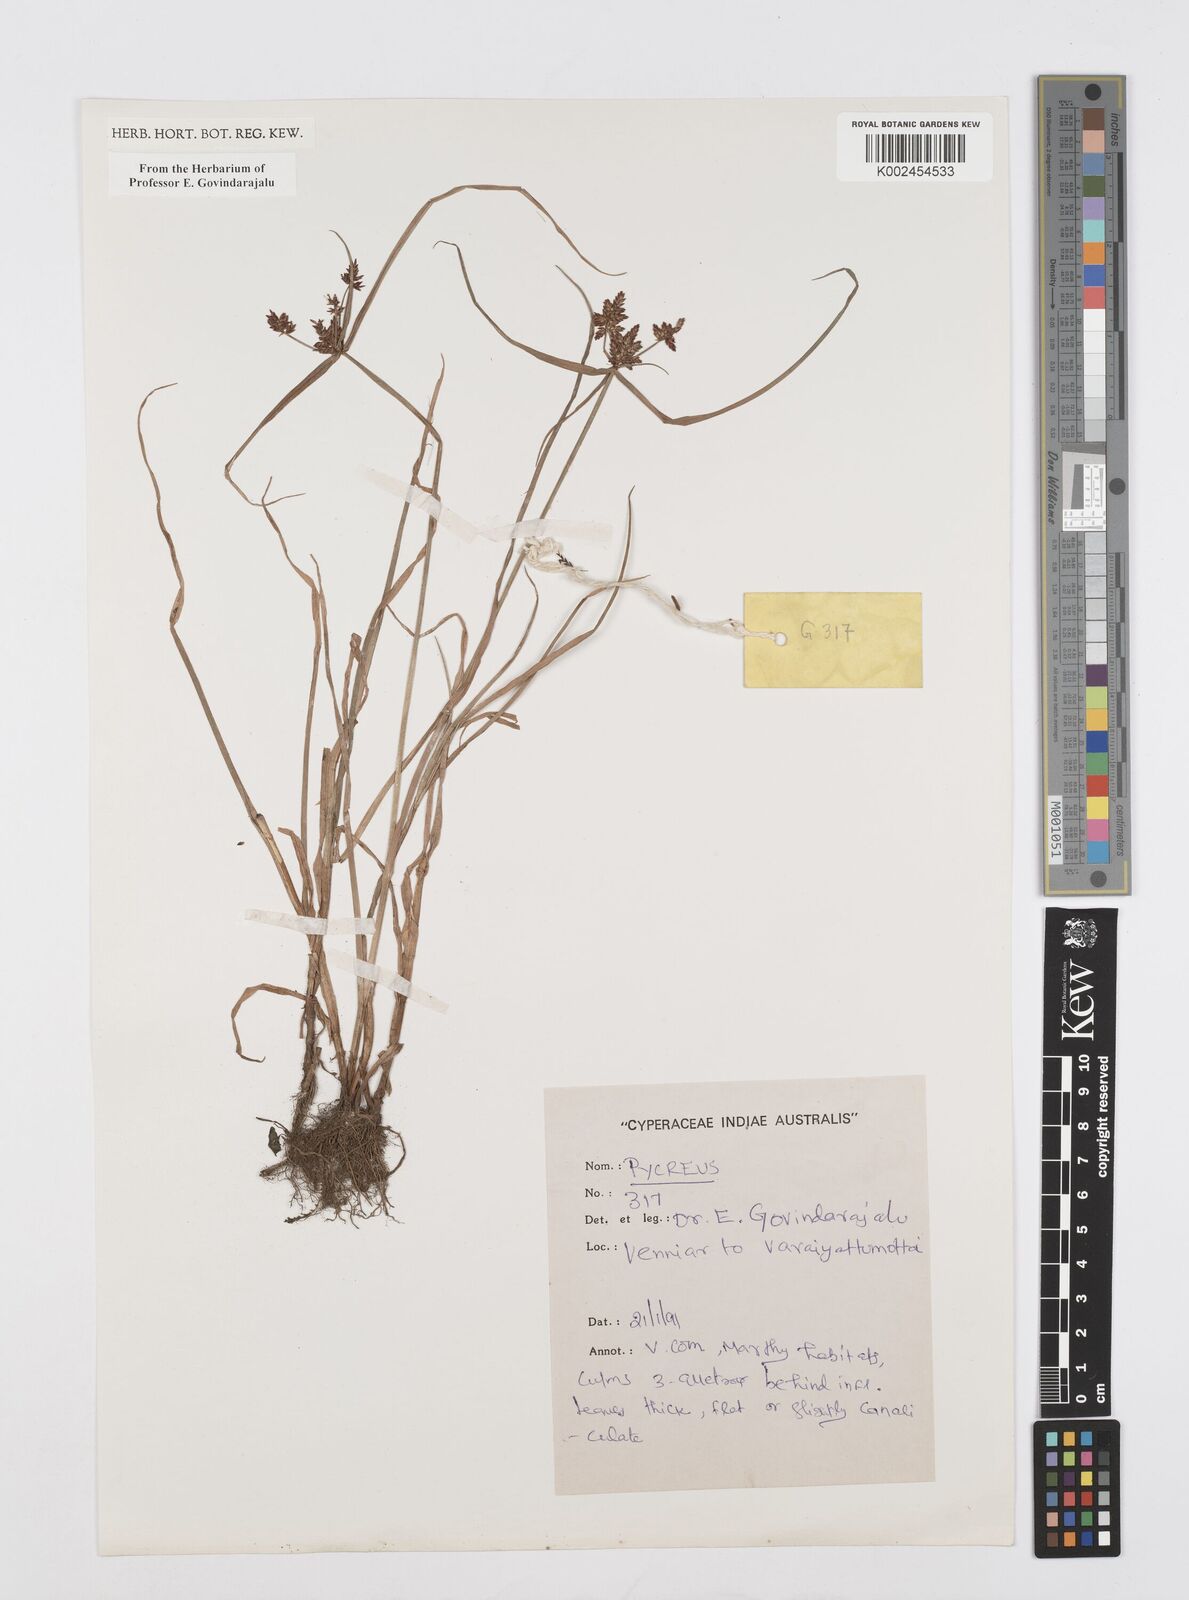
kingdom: Plantae
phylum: Tracheophyta
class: Liliopsida
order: Poales
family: Cyperaceae
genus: Cyperus
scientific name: Cyperus
